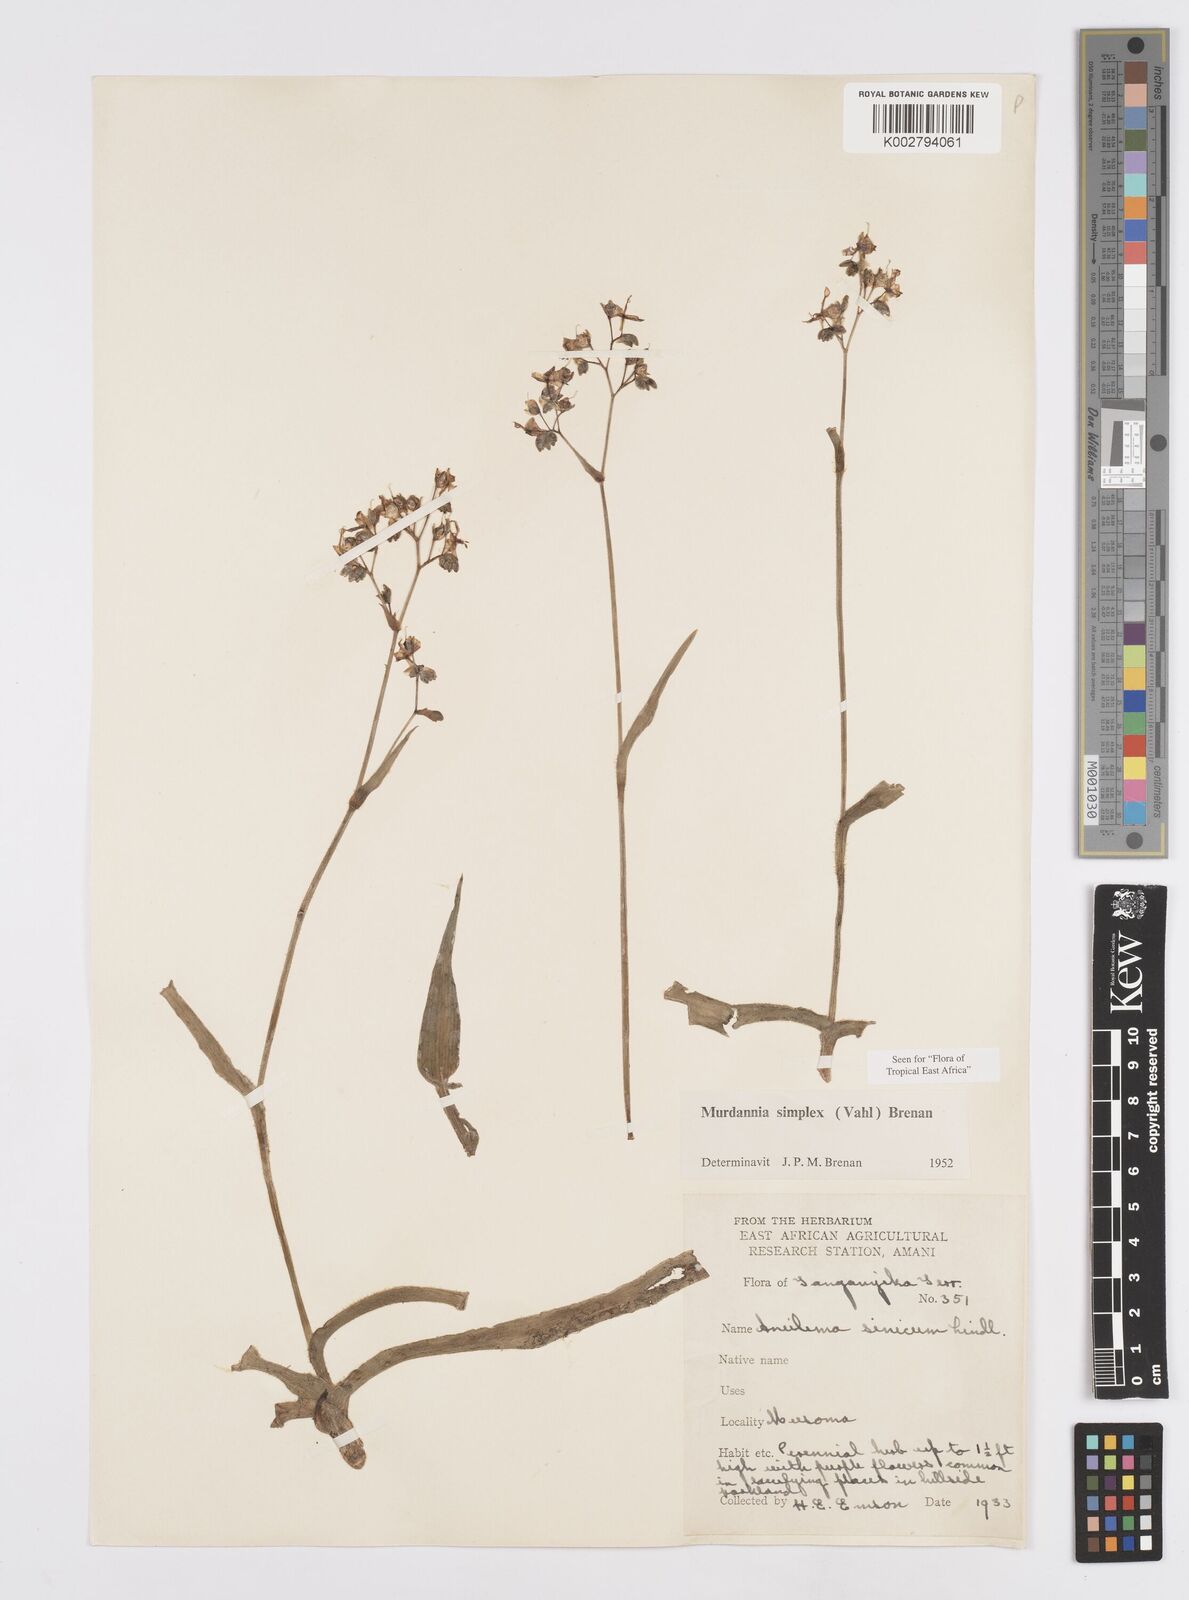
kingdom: Plantae
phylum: Tracheophyta
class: Liliopsida
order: Commelinales
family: Commelinaceae
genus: Murdannia
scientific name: Murdannia simplex
